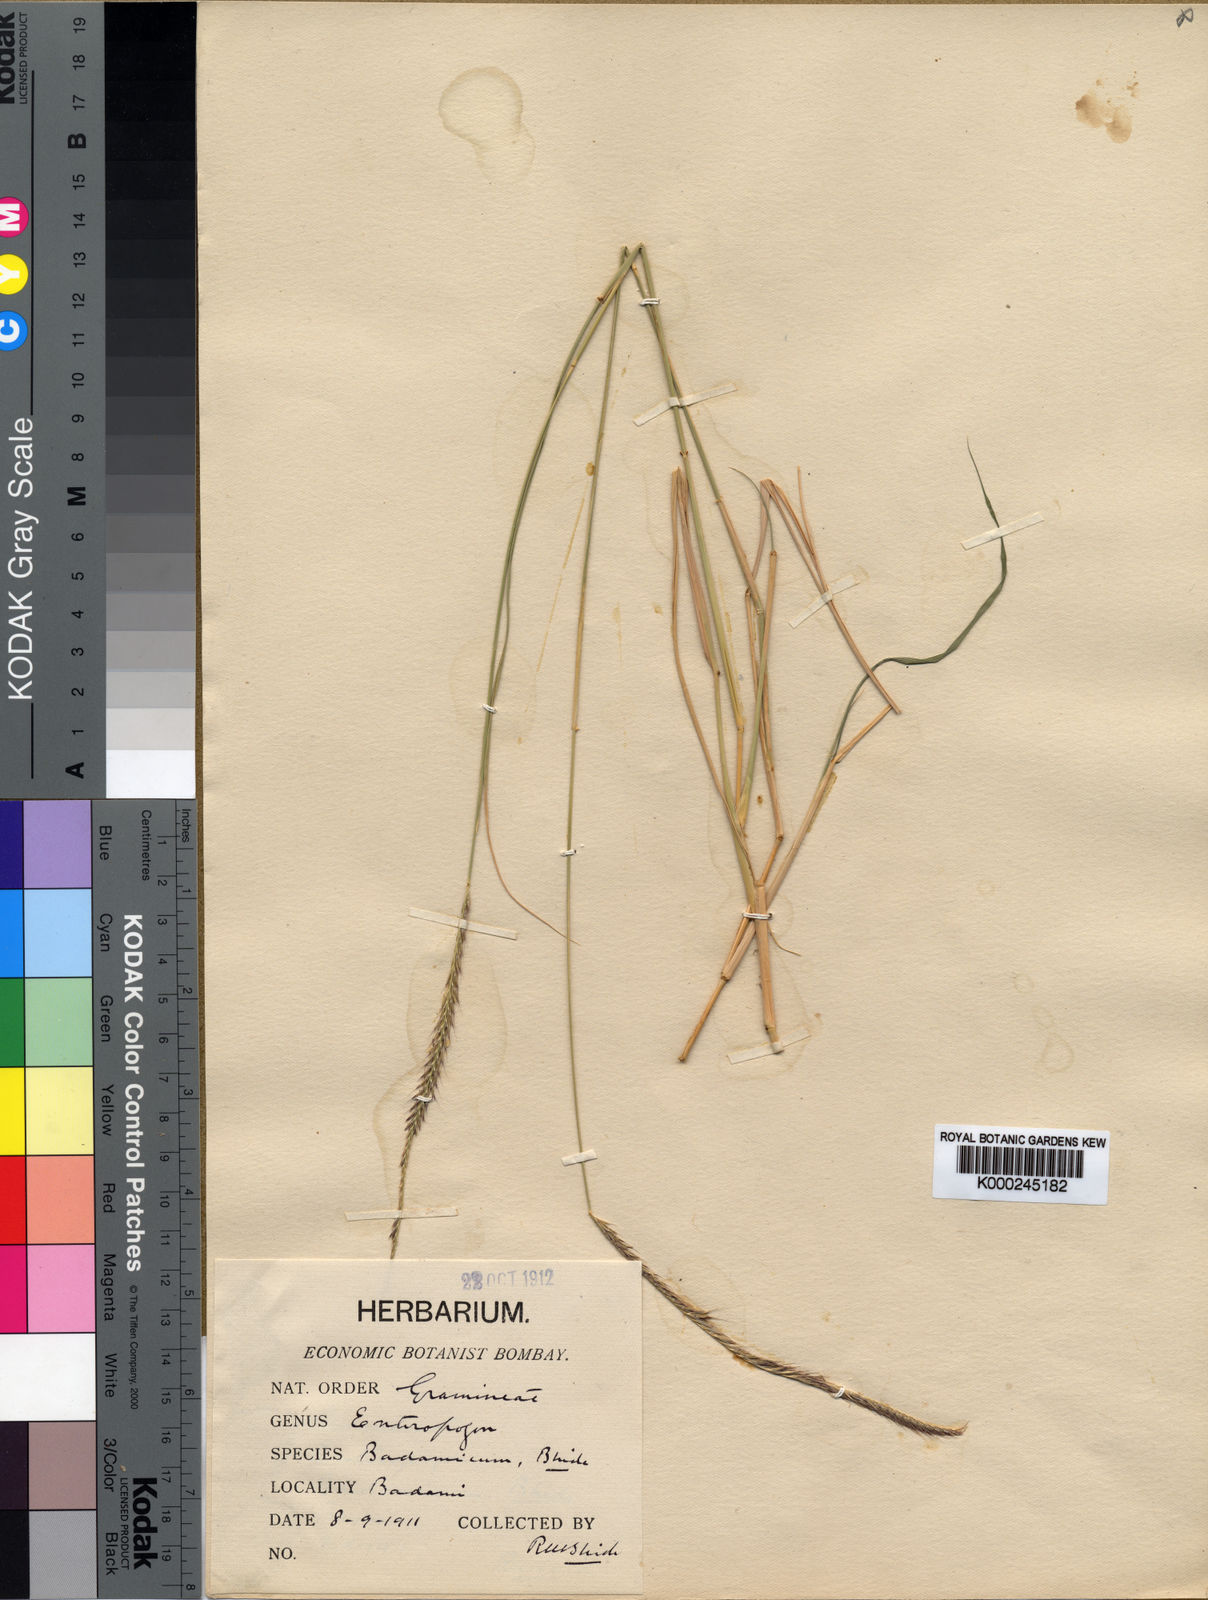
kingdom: Plantae
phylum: Tracheophyta
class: Liliopsida
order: Poales
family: Poaceae
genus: Enteropogon
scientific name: Enteropogon monostachyos
